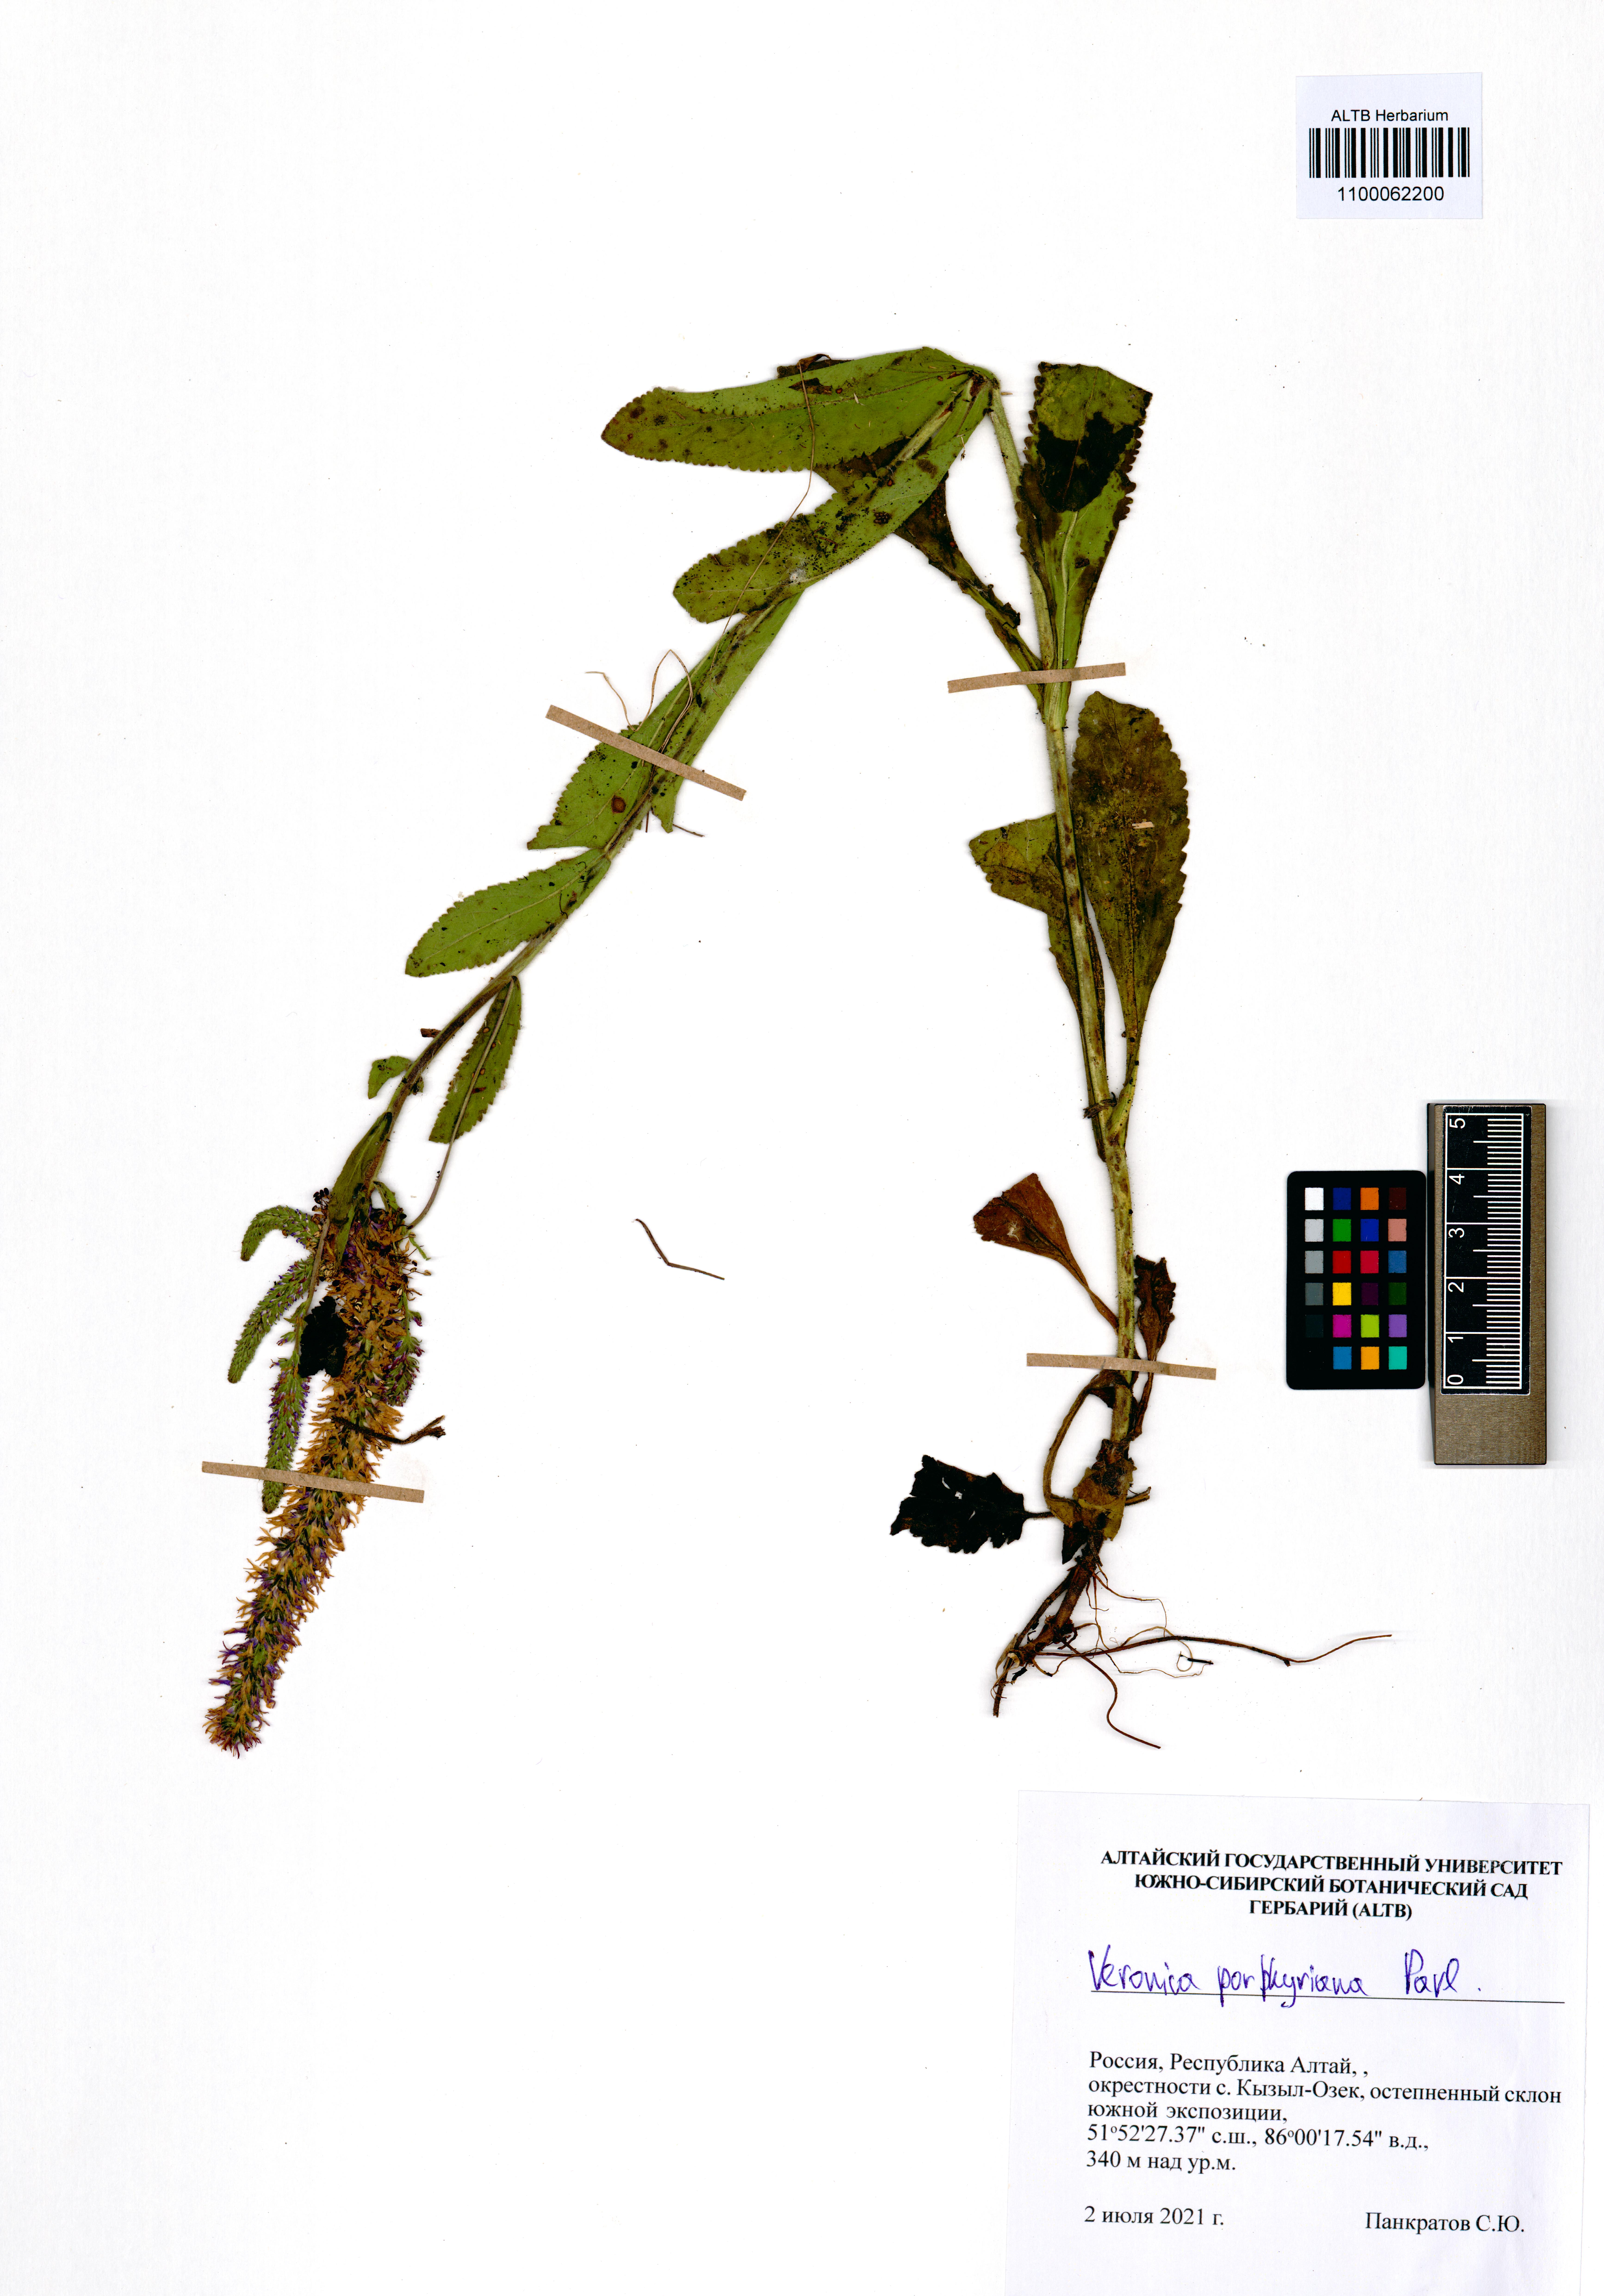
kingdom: Plantae
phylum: Tracheophyta
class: Magnoliopsida
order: Lamiales
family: Plantaginaceae
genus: Veronica
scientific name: Veronica porphyriana
